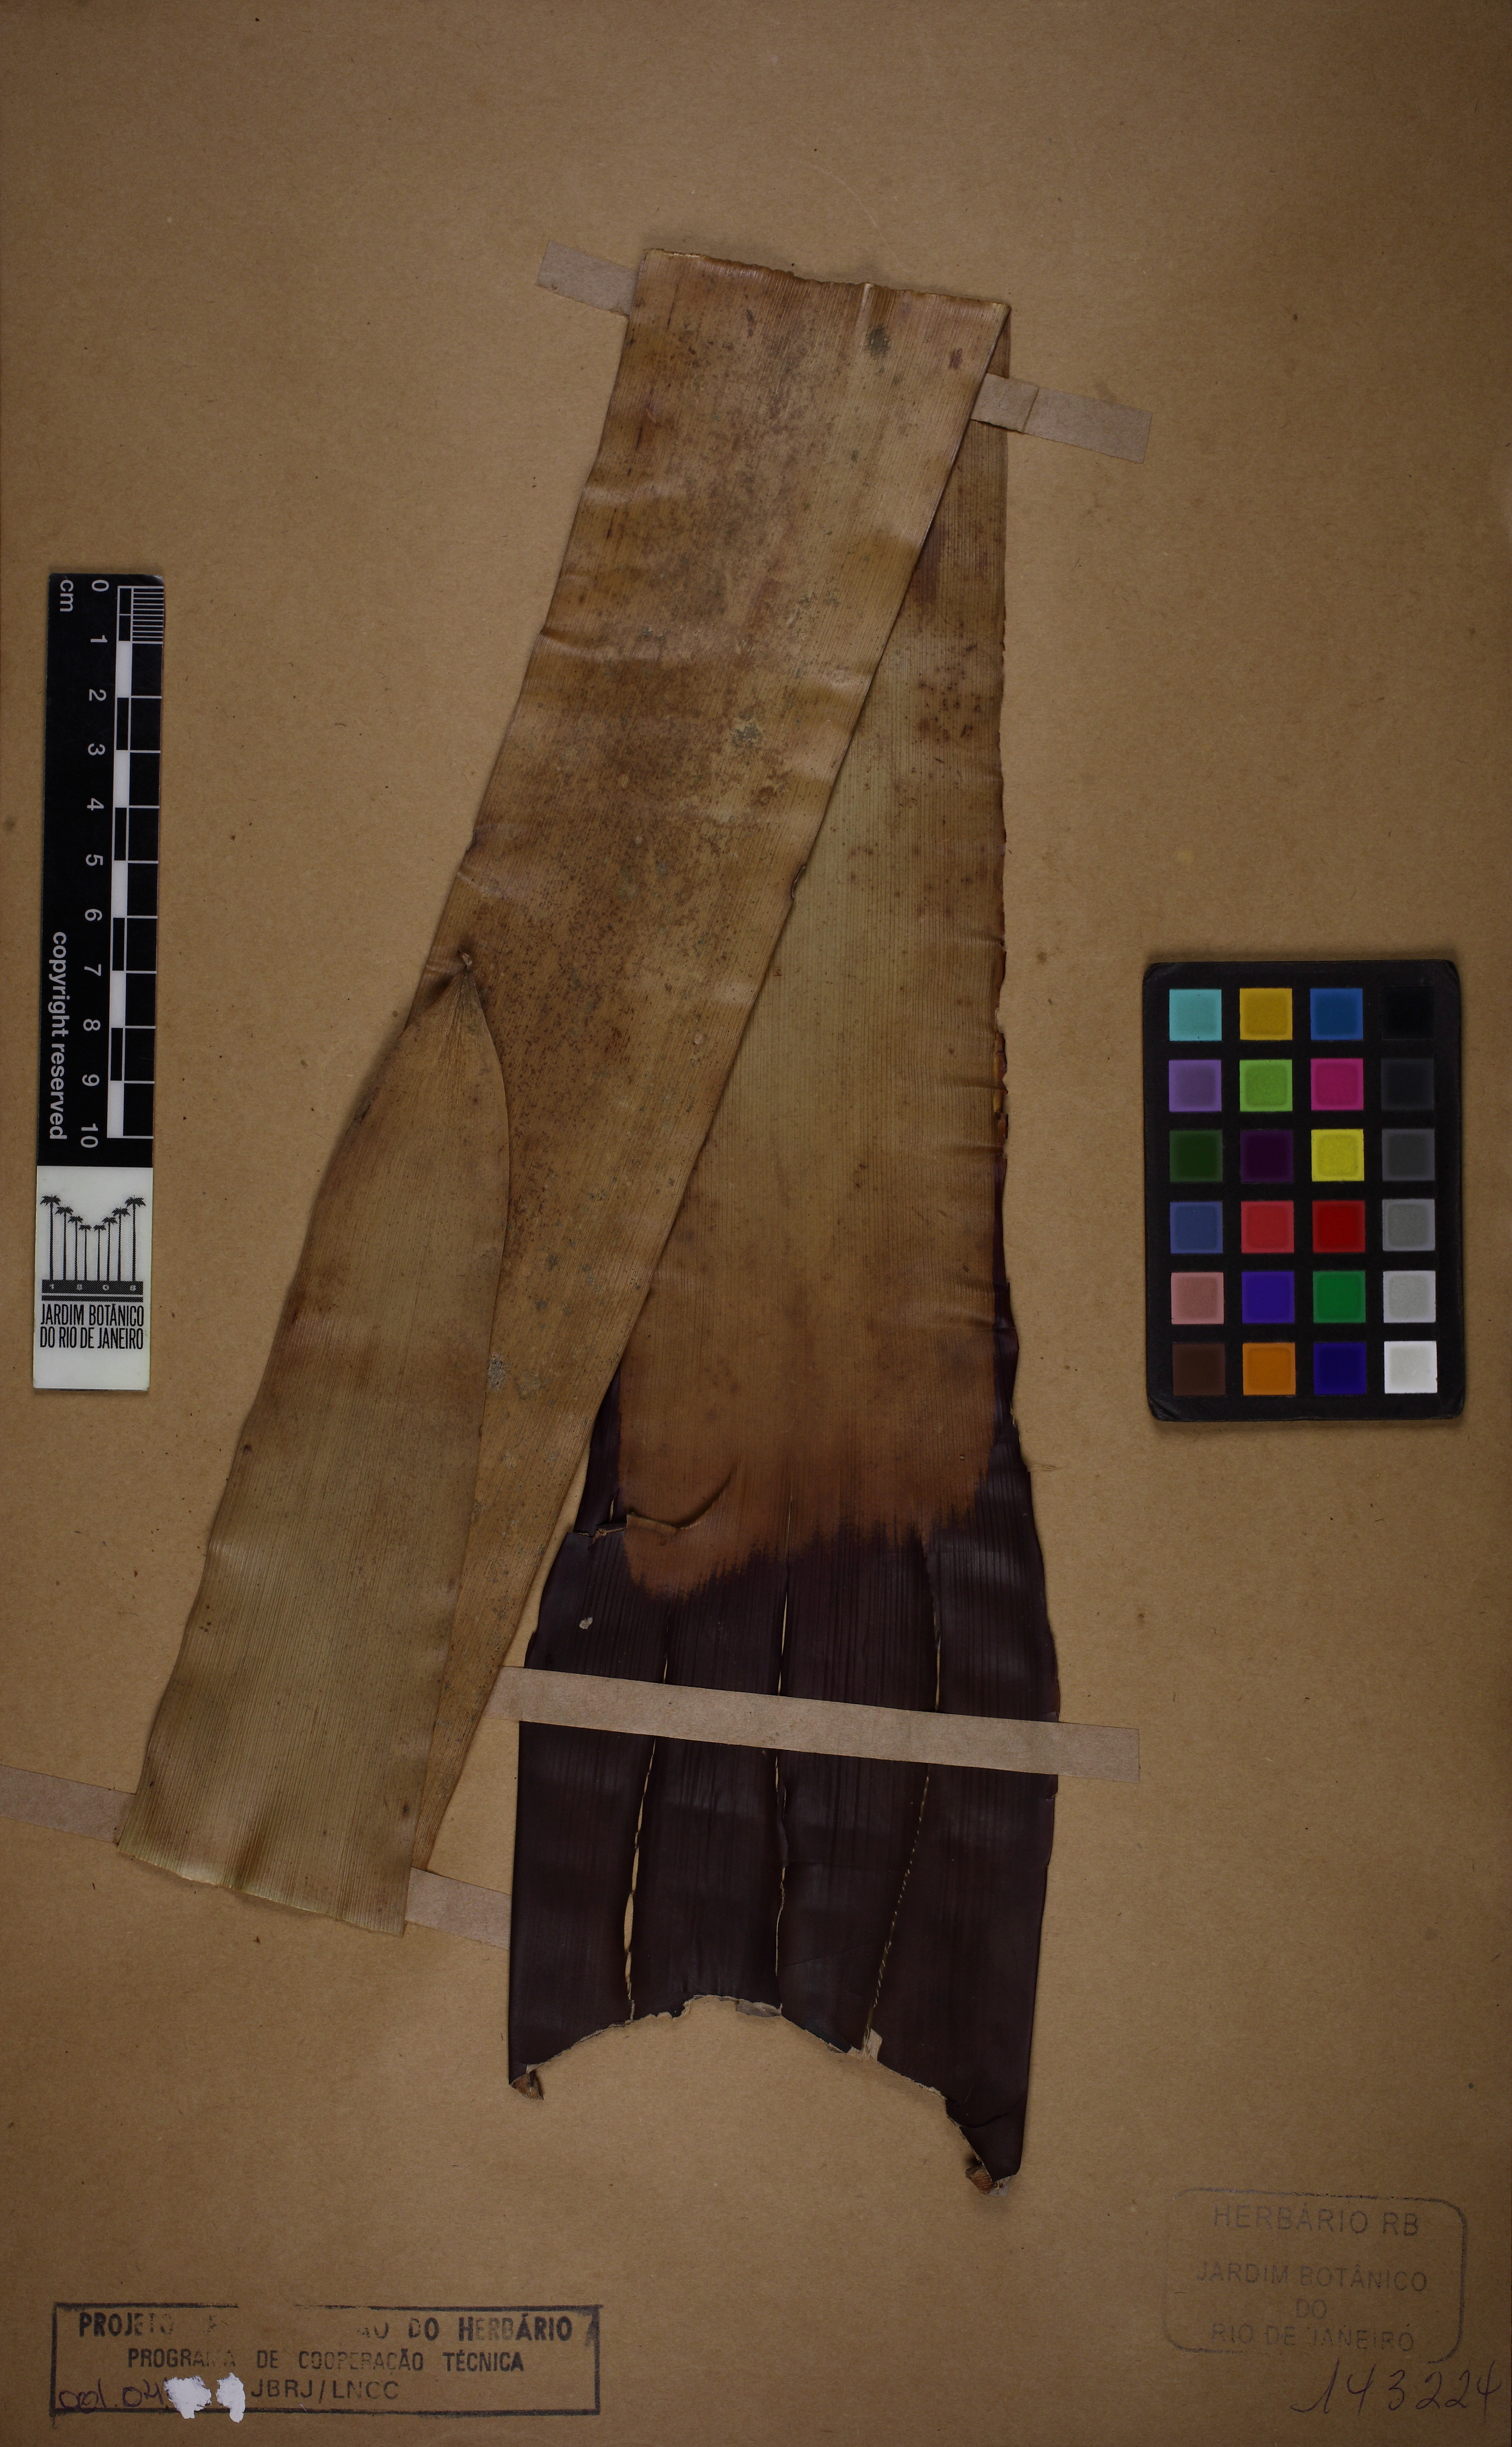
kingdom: Plantae
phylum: Tracheophyta
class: Liliopsida
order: Poales
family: Bromeliaceae
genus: Vriesea
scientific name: Vriesea tijucana
